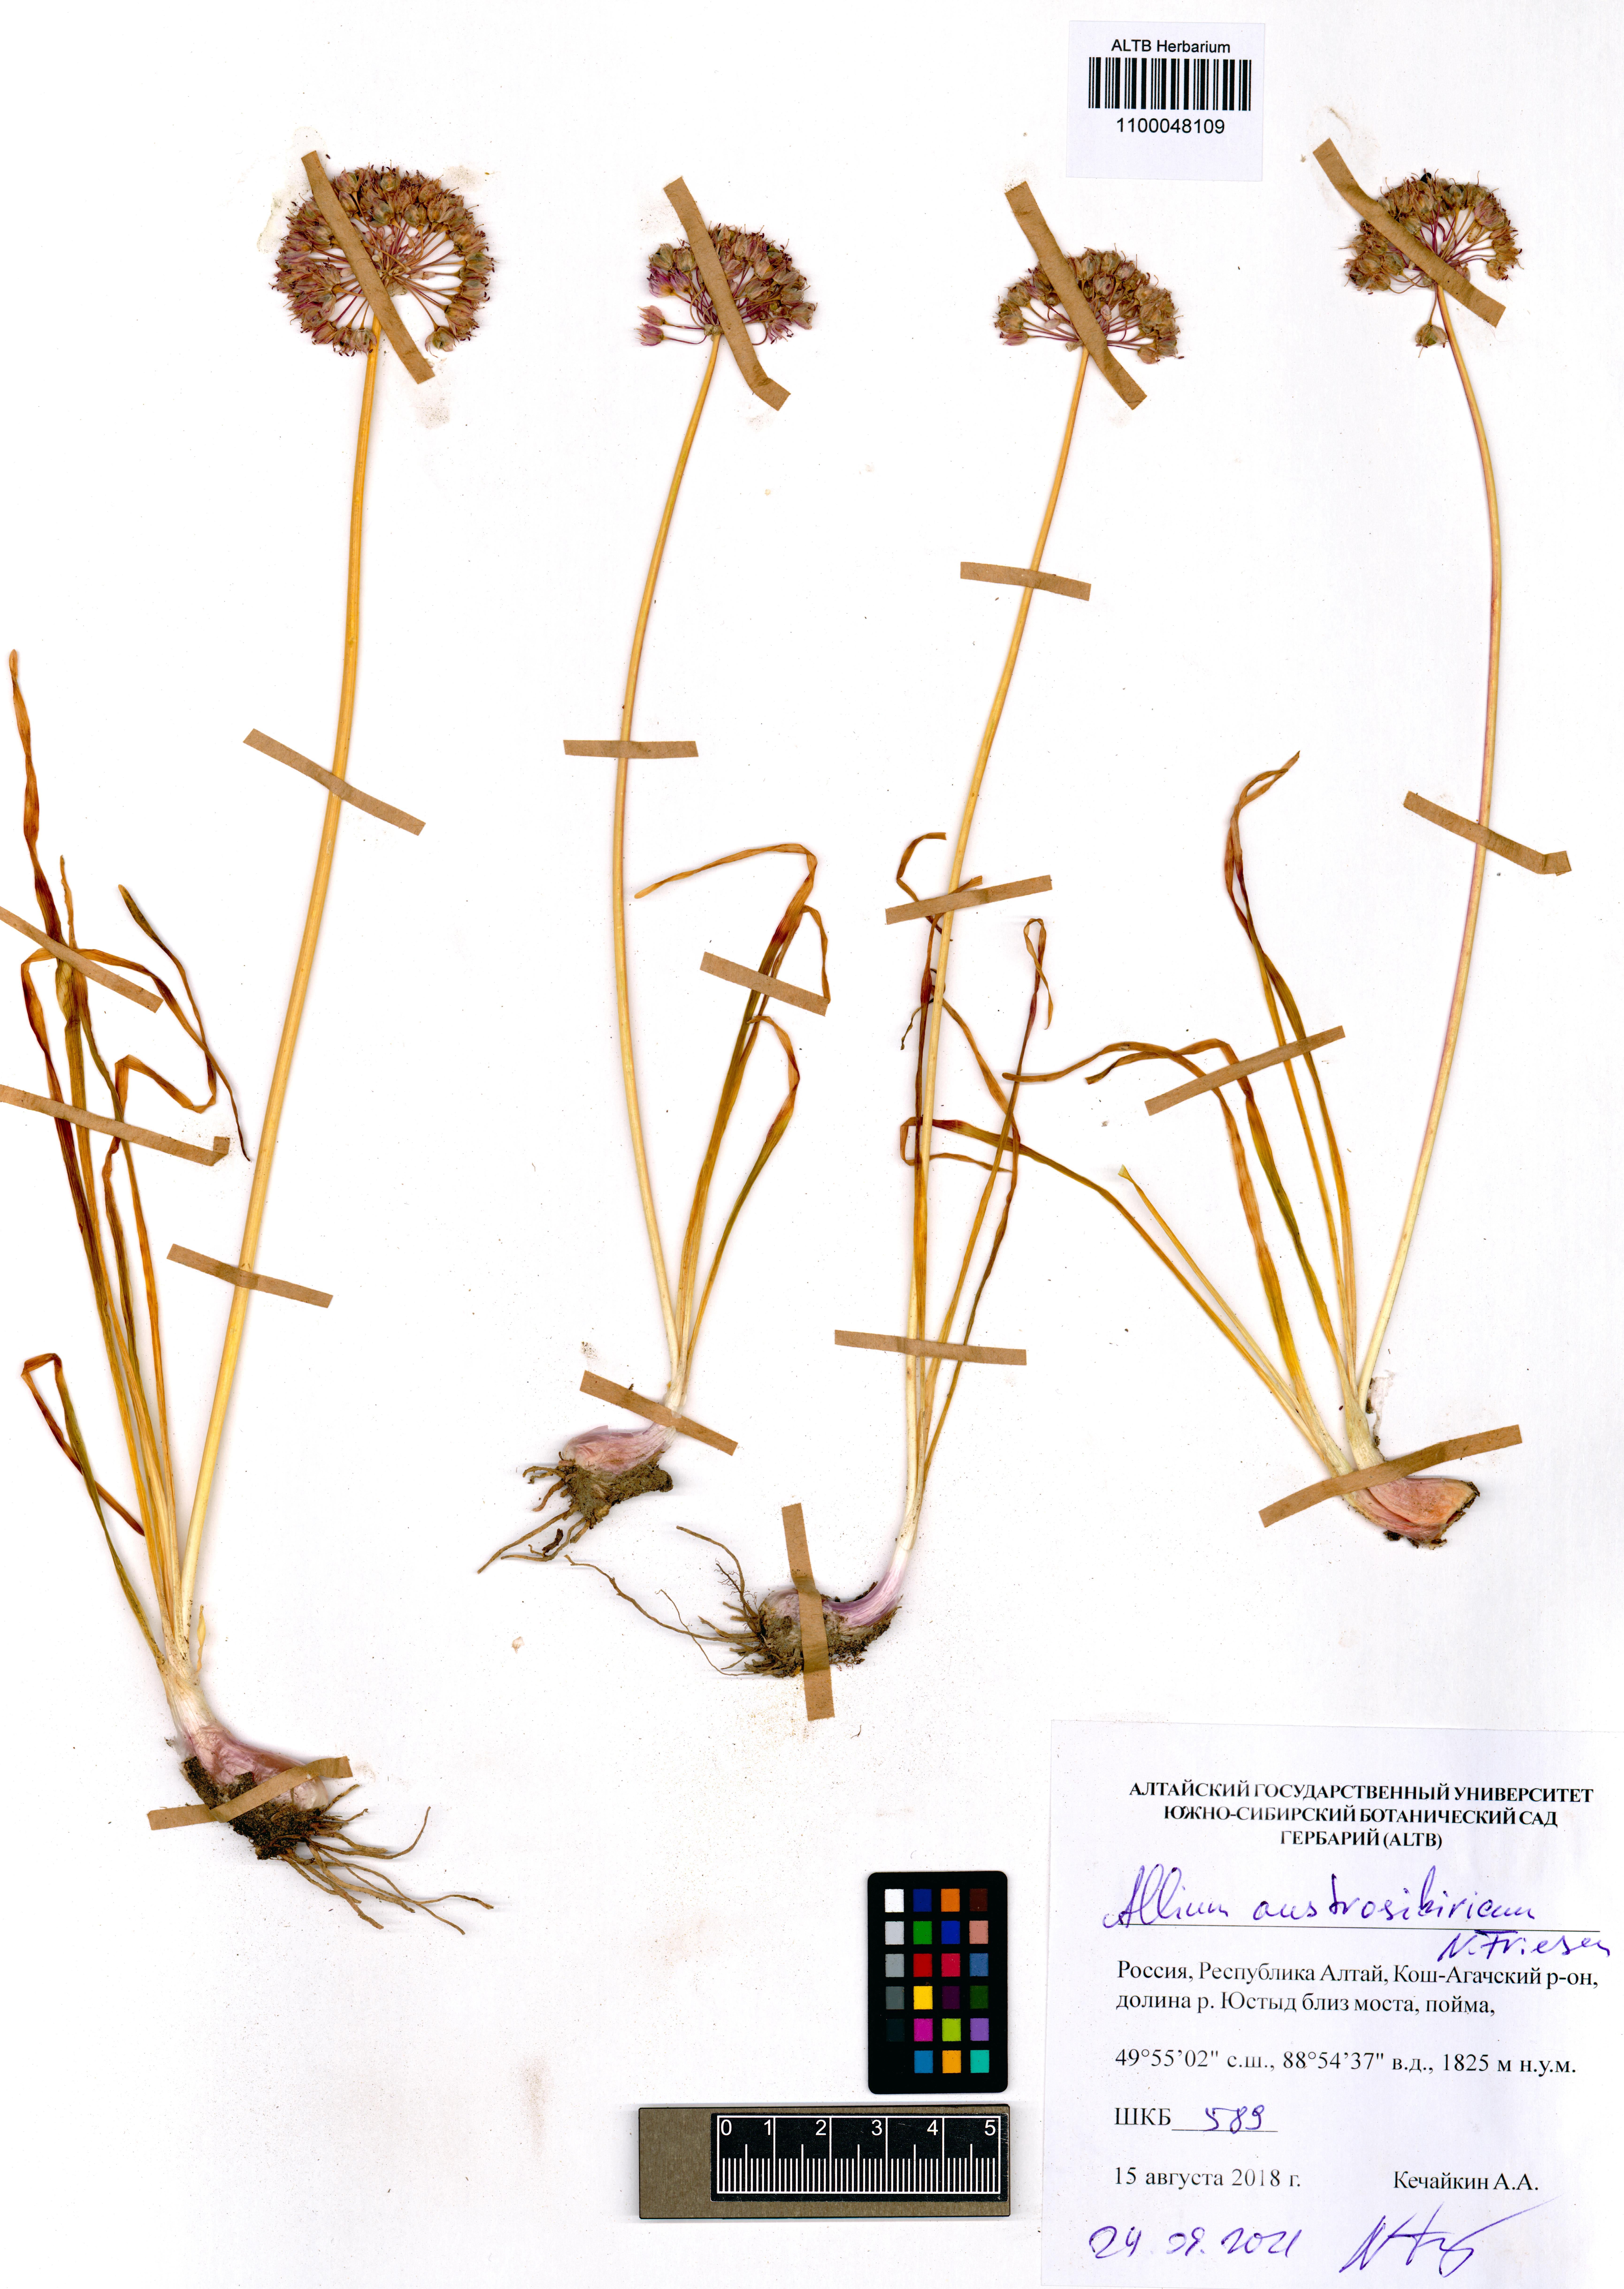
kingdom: Plantae
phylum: Tracheophyta
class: Liliopsida
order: Asparagales
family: Amaryllidaceae
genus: Allium
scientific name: Allium austrosibiricum
